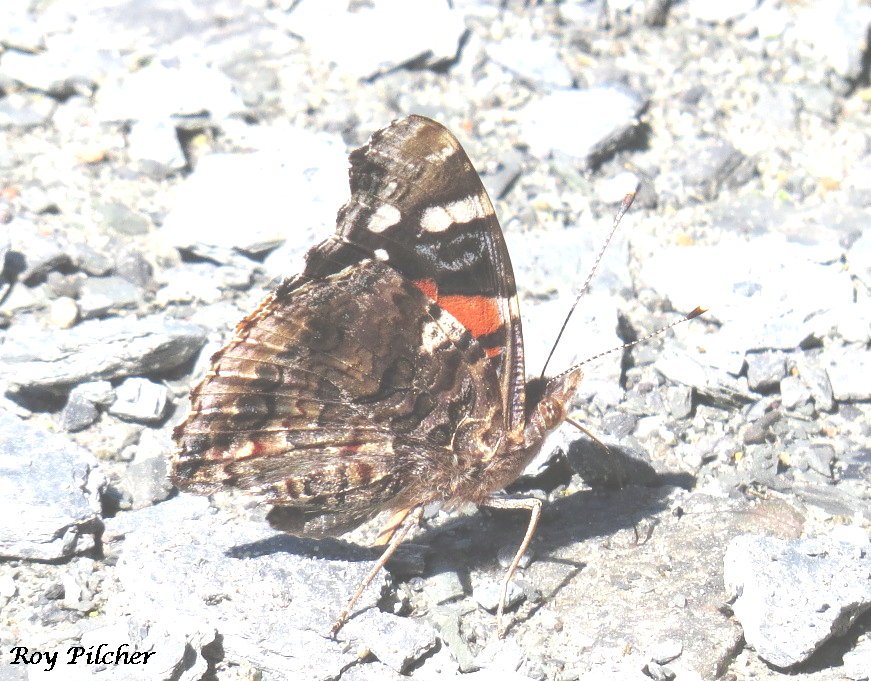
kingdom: Animalia
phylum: Arthropoda
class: Insecta
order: Lepidoptera
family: Nymphalidae
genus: Vanessa
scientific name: Vanessa atalanta
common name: Red Admiral
